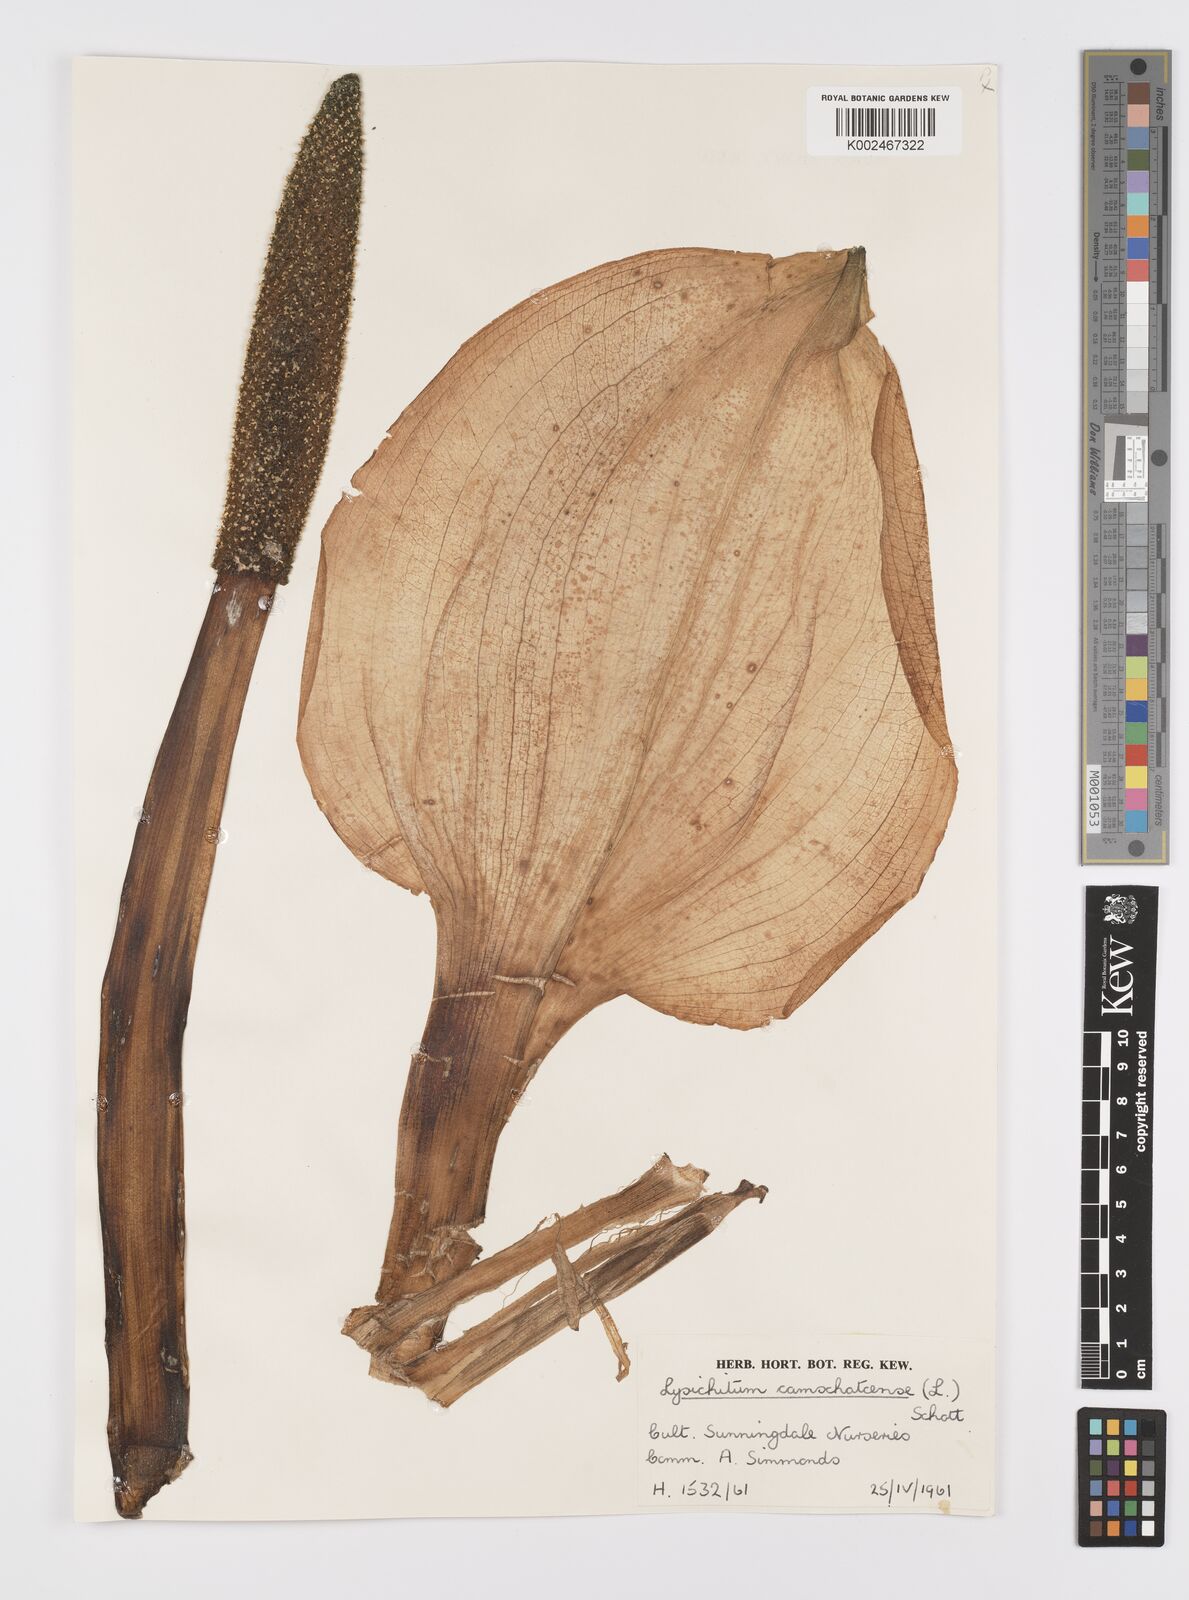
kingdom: Plantae
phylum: Tracheophyta
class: Liliopsida
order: Alismatales
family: Araceae
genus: Lysichiton
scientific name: Lysichiton americanus
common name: American skunk cabbage
